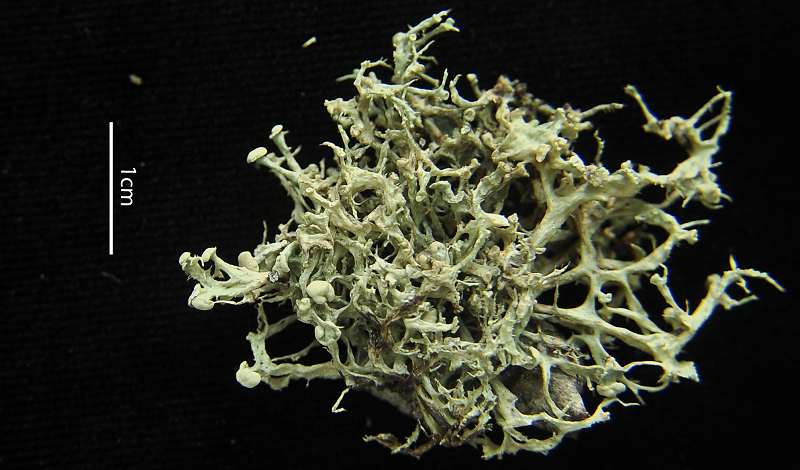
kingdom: Fungi
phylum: Ascomycota
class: Arthoniomycetes
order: Arthoniales
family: Roccellaceae
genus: Roccella
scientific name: Roccella
